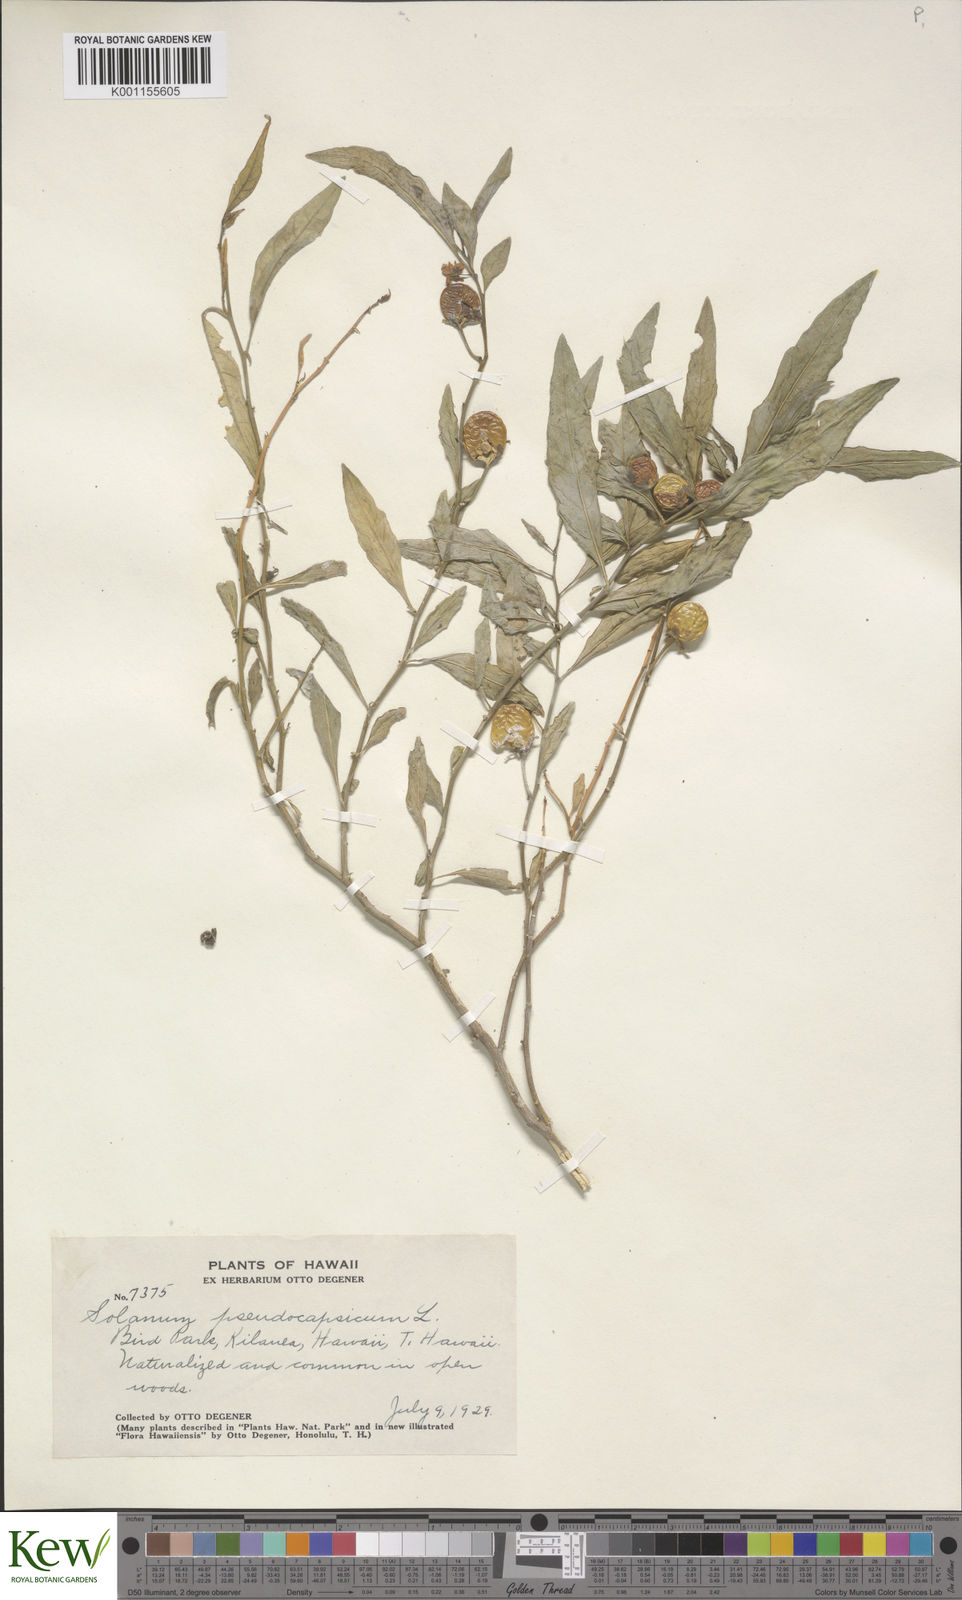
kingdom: Plantae
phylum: Tracheophyta
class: Magnoliopsida
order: Solanales
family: Solanaceae
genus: Solanum
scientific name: Solanum pseudocapsicum
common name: Jerusalem cherry
